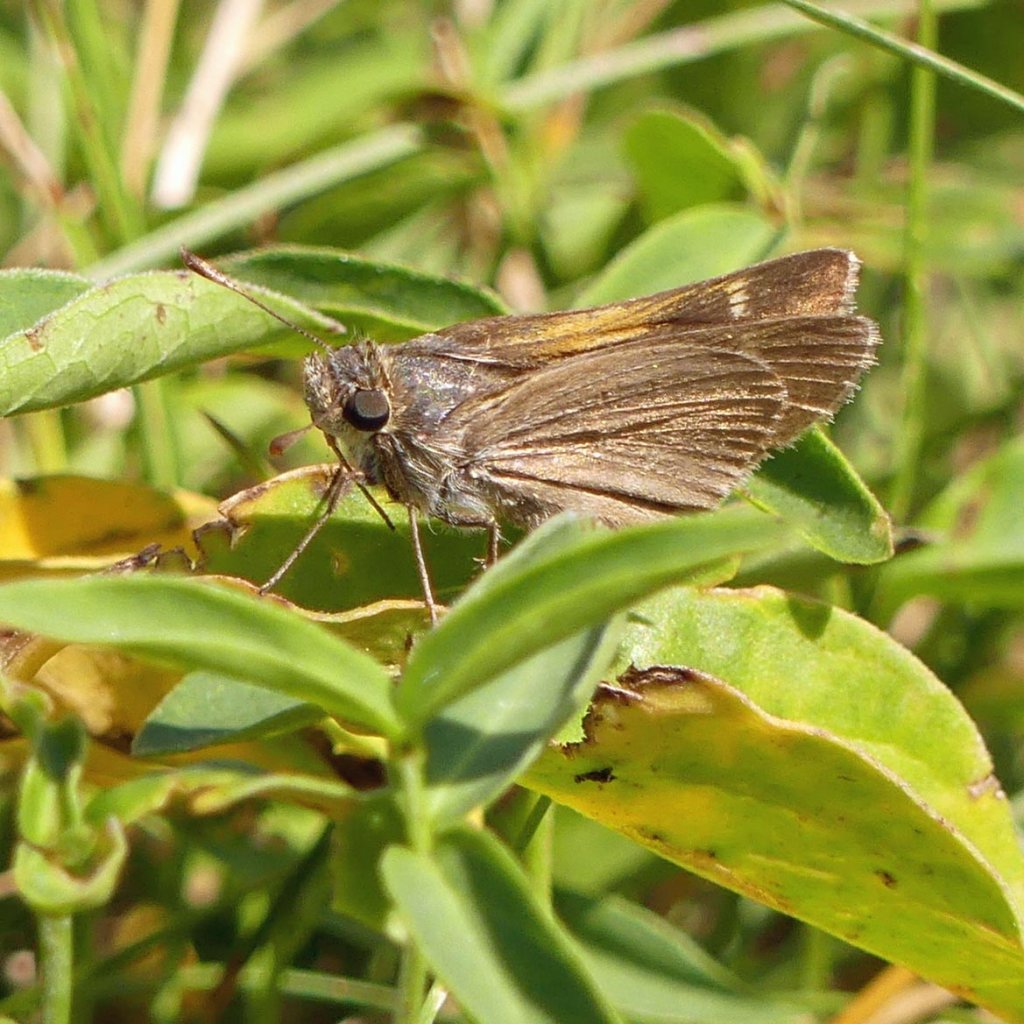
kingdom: Animalia
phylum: Arthropoda
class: Insecta
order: Lepidoptera
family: Hesperiidae
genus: Polites
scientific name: Polites themistocles
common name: Tawny-edged Skipper
